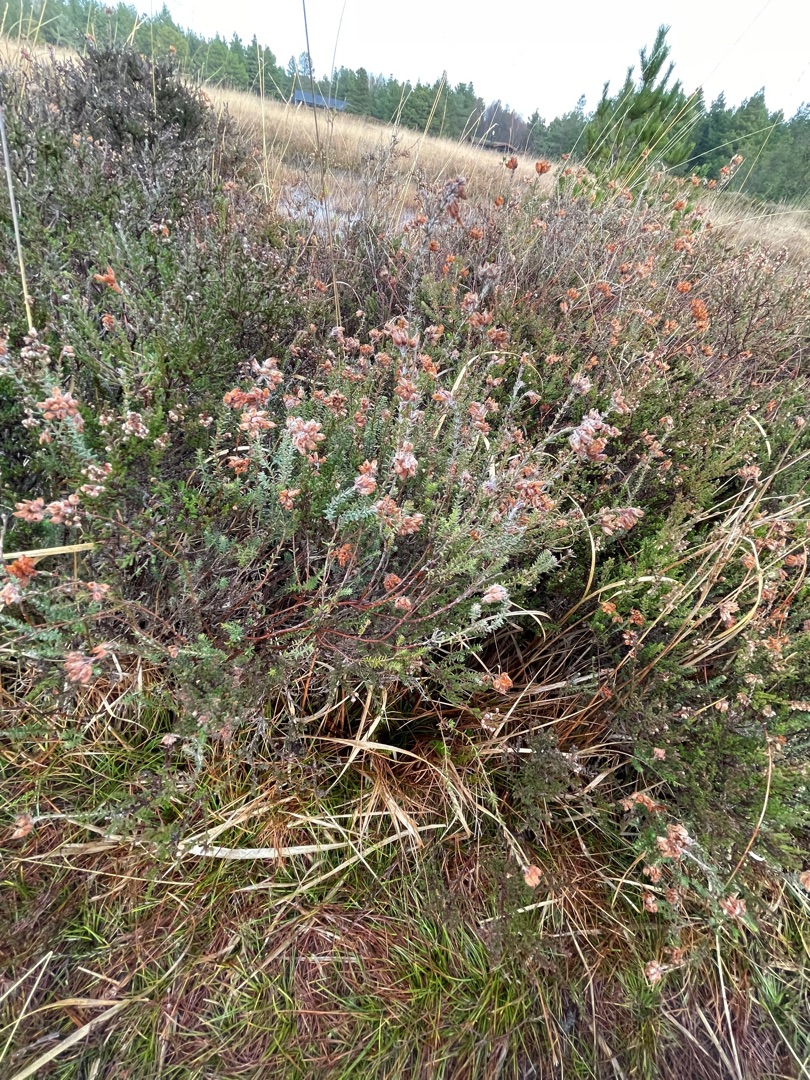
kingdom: Plantae
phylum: Tracheophyta
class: Magnoliopsida
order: Ericales
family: Ericaceae
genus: Erica
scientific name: Erica tetralix
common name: Klokkelyng
